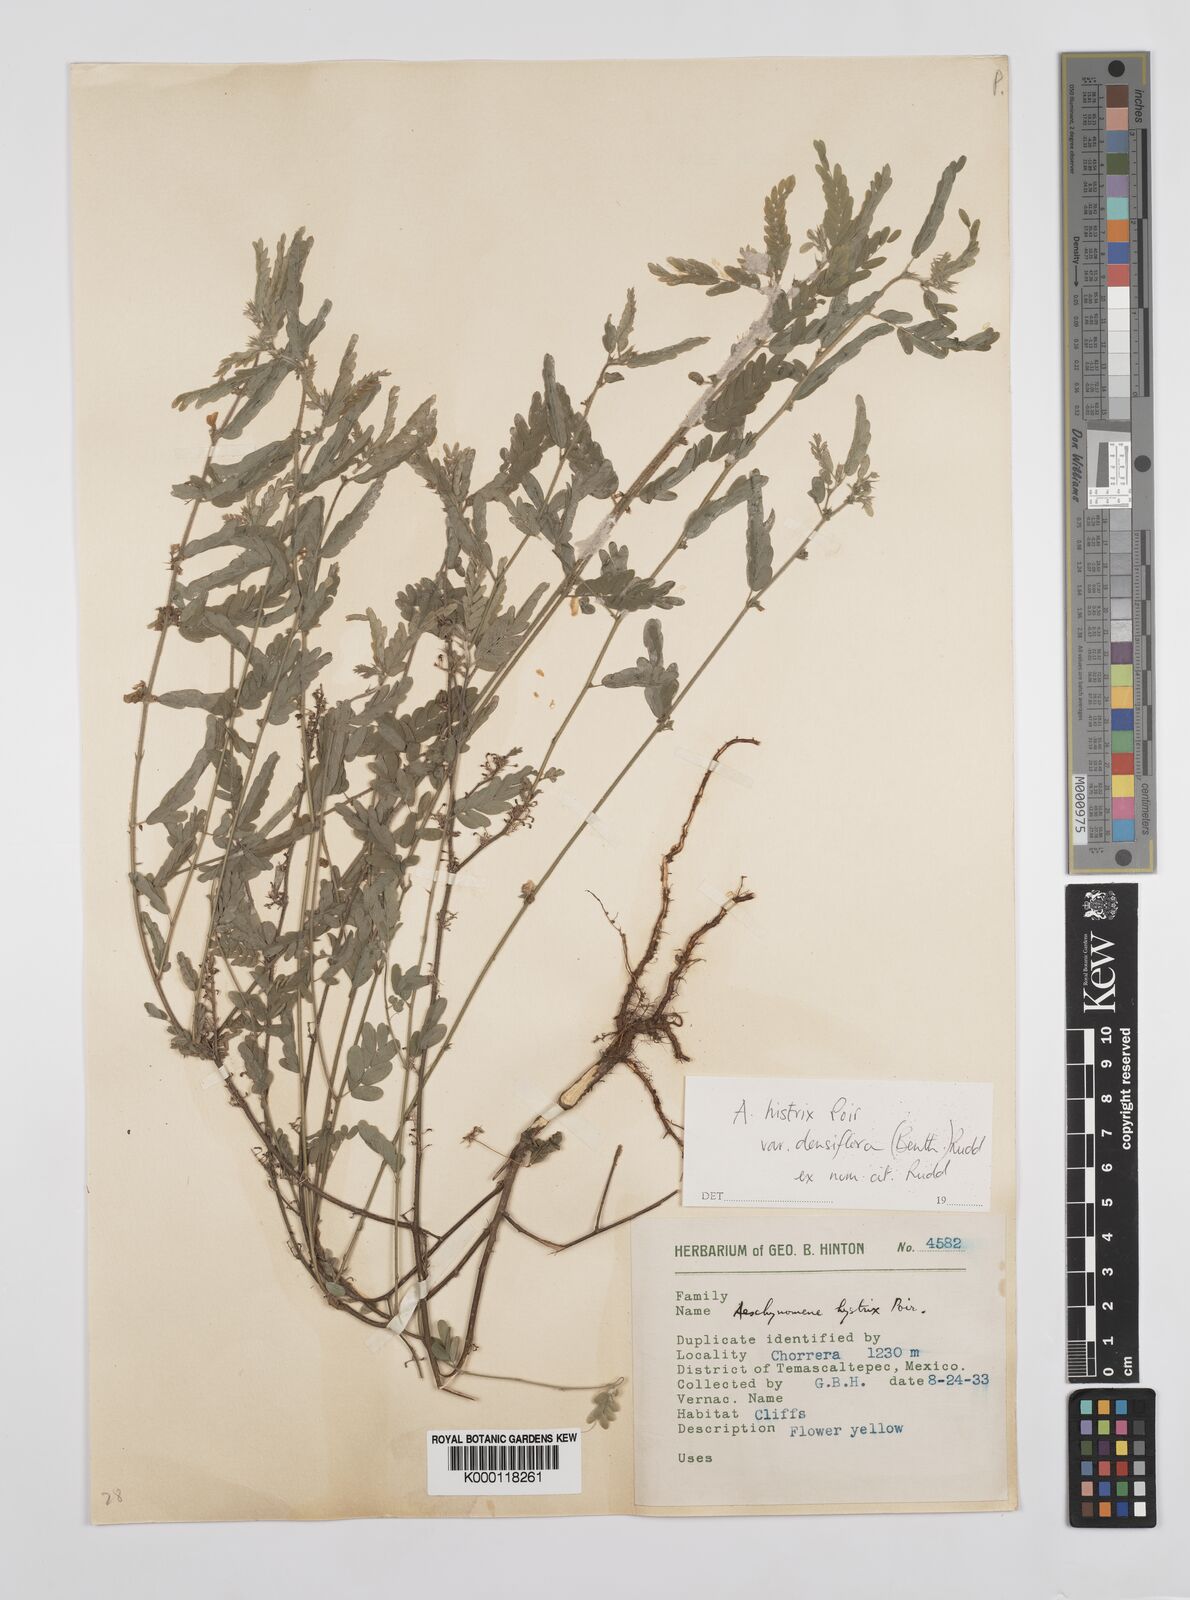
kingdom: Plantae
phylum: Tracheophyta
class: Magnoliopsida
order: Fabales
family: Fabaceae
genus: Ctenodon
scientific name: Ctenodon histrix
